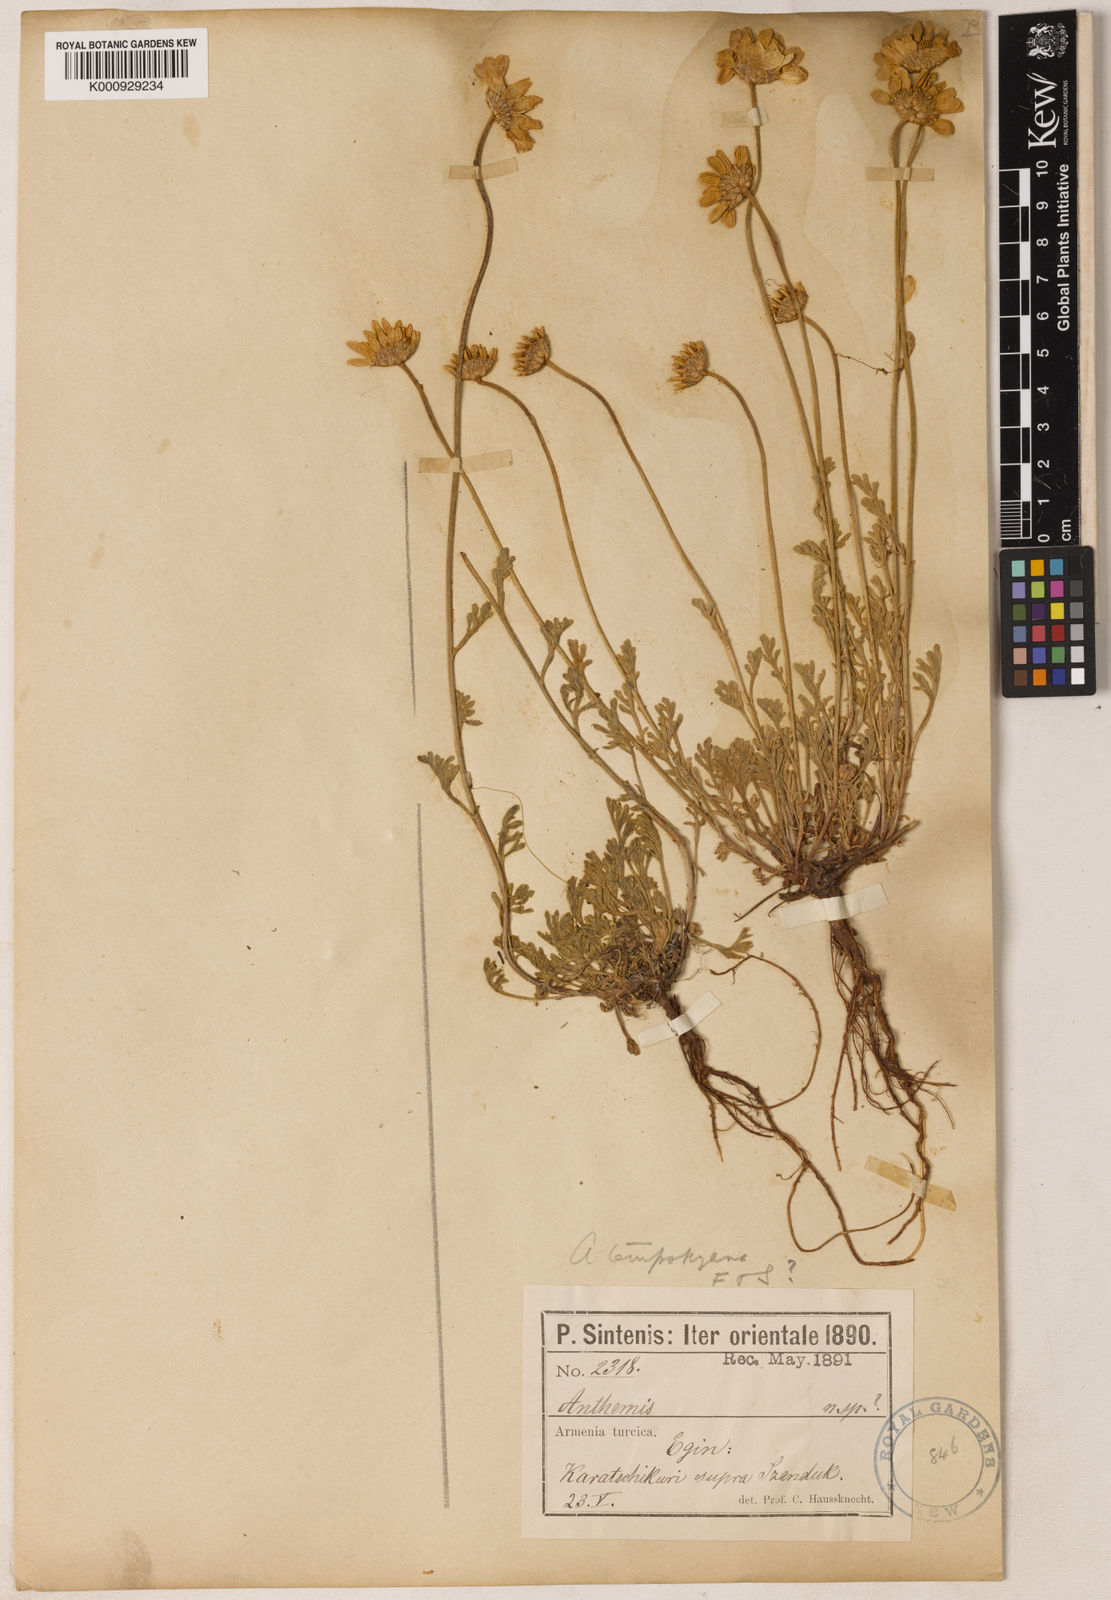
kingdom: Plantae
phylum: Tracheophyta
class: Magnoliopsida
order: Asterales
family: Asteraceae
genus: Anthemis
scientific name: Anthemis cretica
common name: Mountain dog-daisy
